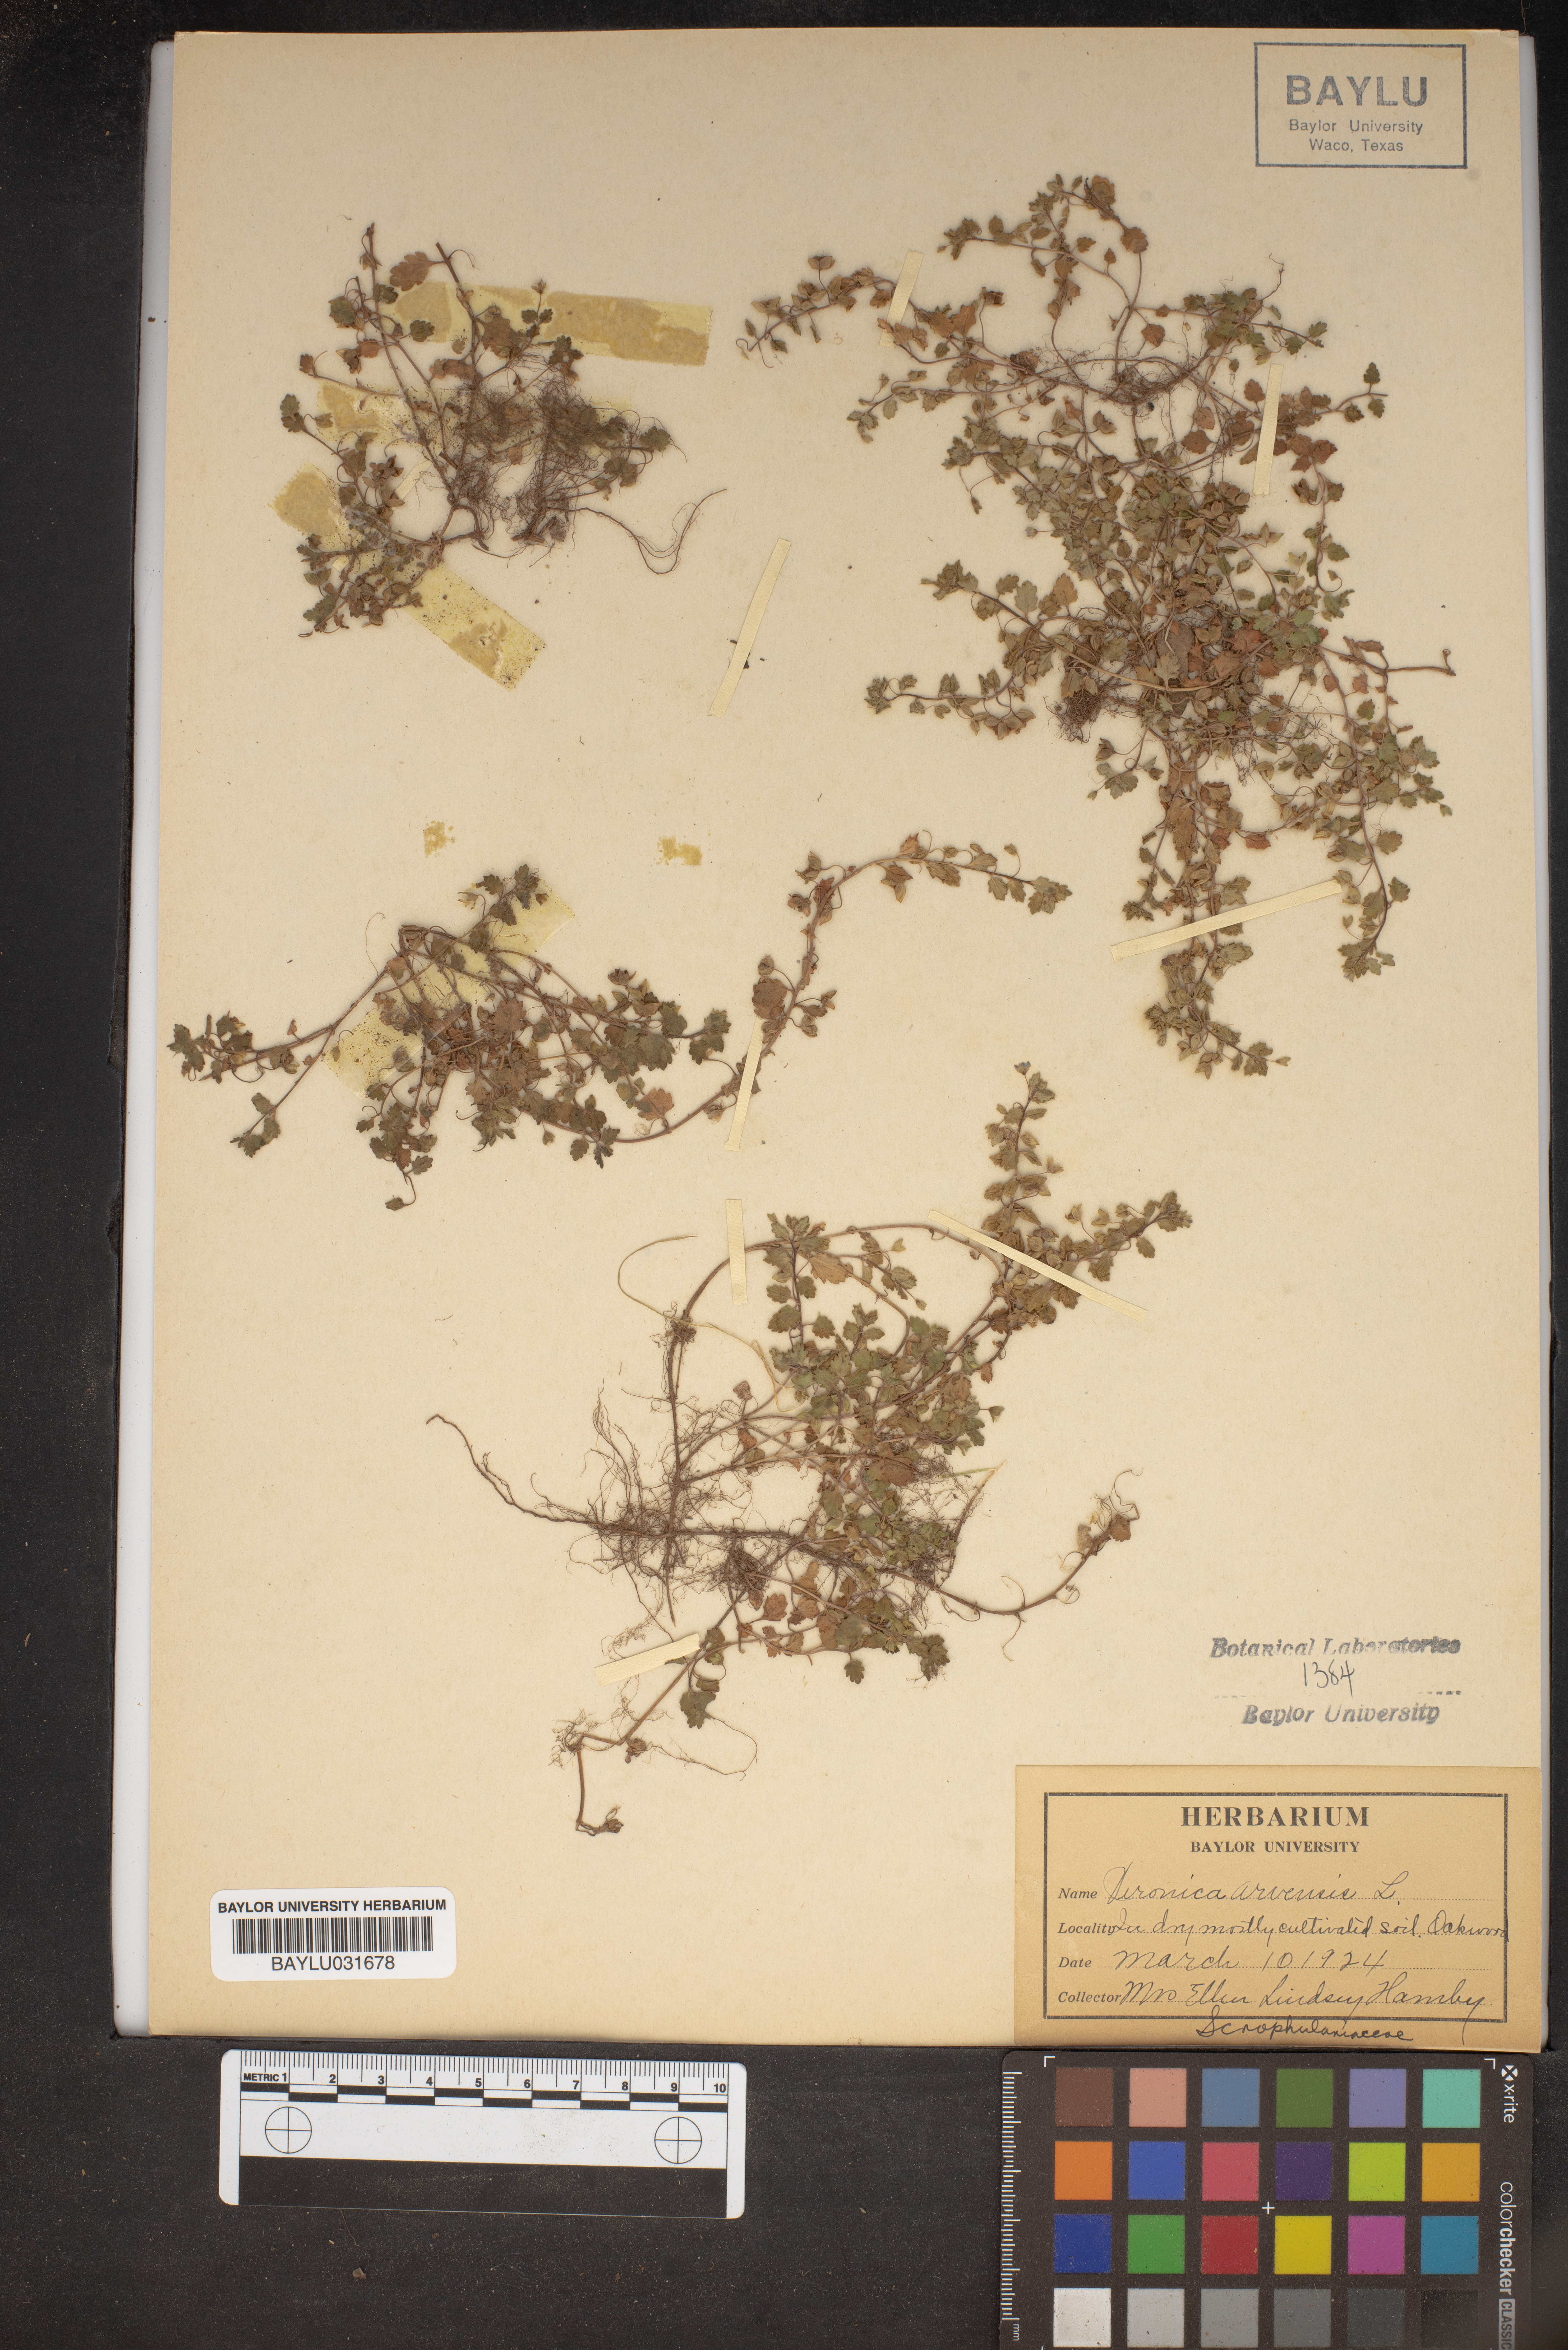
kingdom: Plantae
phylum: Tracheophyta
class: Magnoliopsida
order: Lamiales
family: Plantaginaceae
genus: Veronica
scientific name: Veronica arvensis
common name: Corn speedwell
